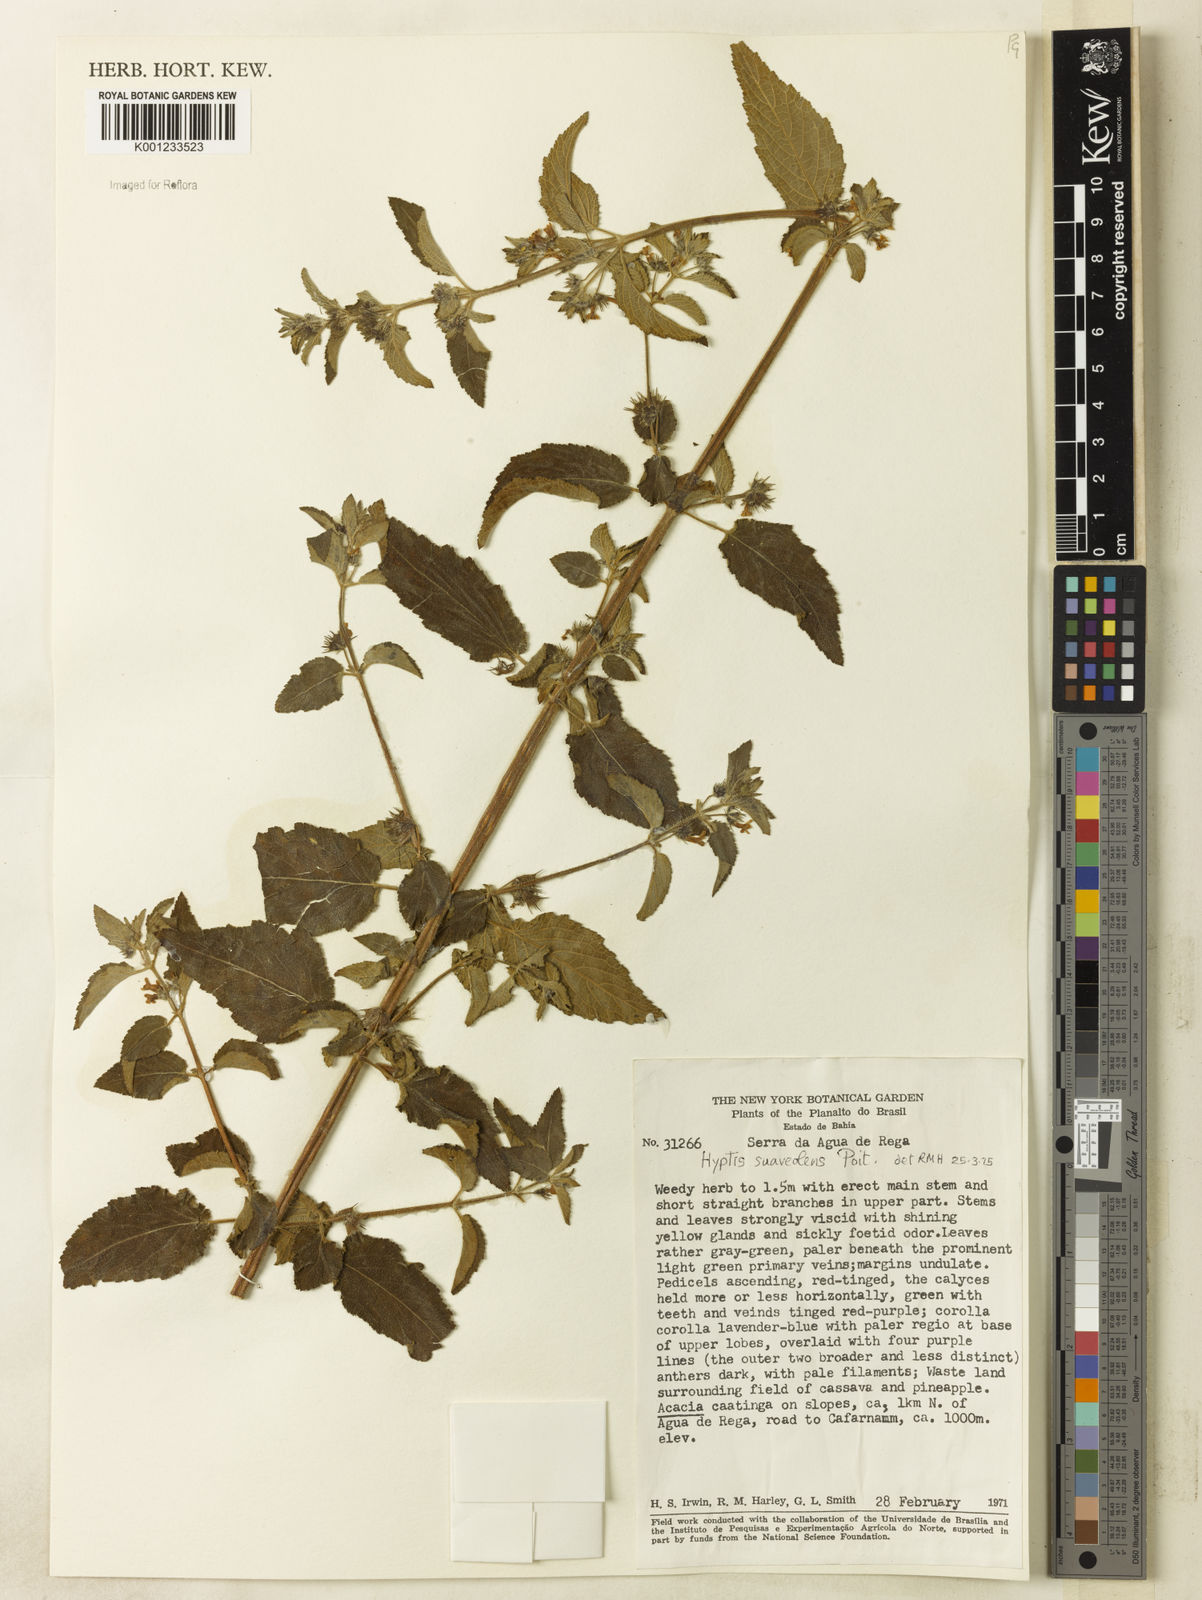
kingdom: Plantae
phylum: Tracheophyta
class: Magnoliopsida
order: Lamiales
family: Lamiaceae
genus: Mesosphaerum
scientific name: Mesosphaerum suaveolens
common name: Pignut
